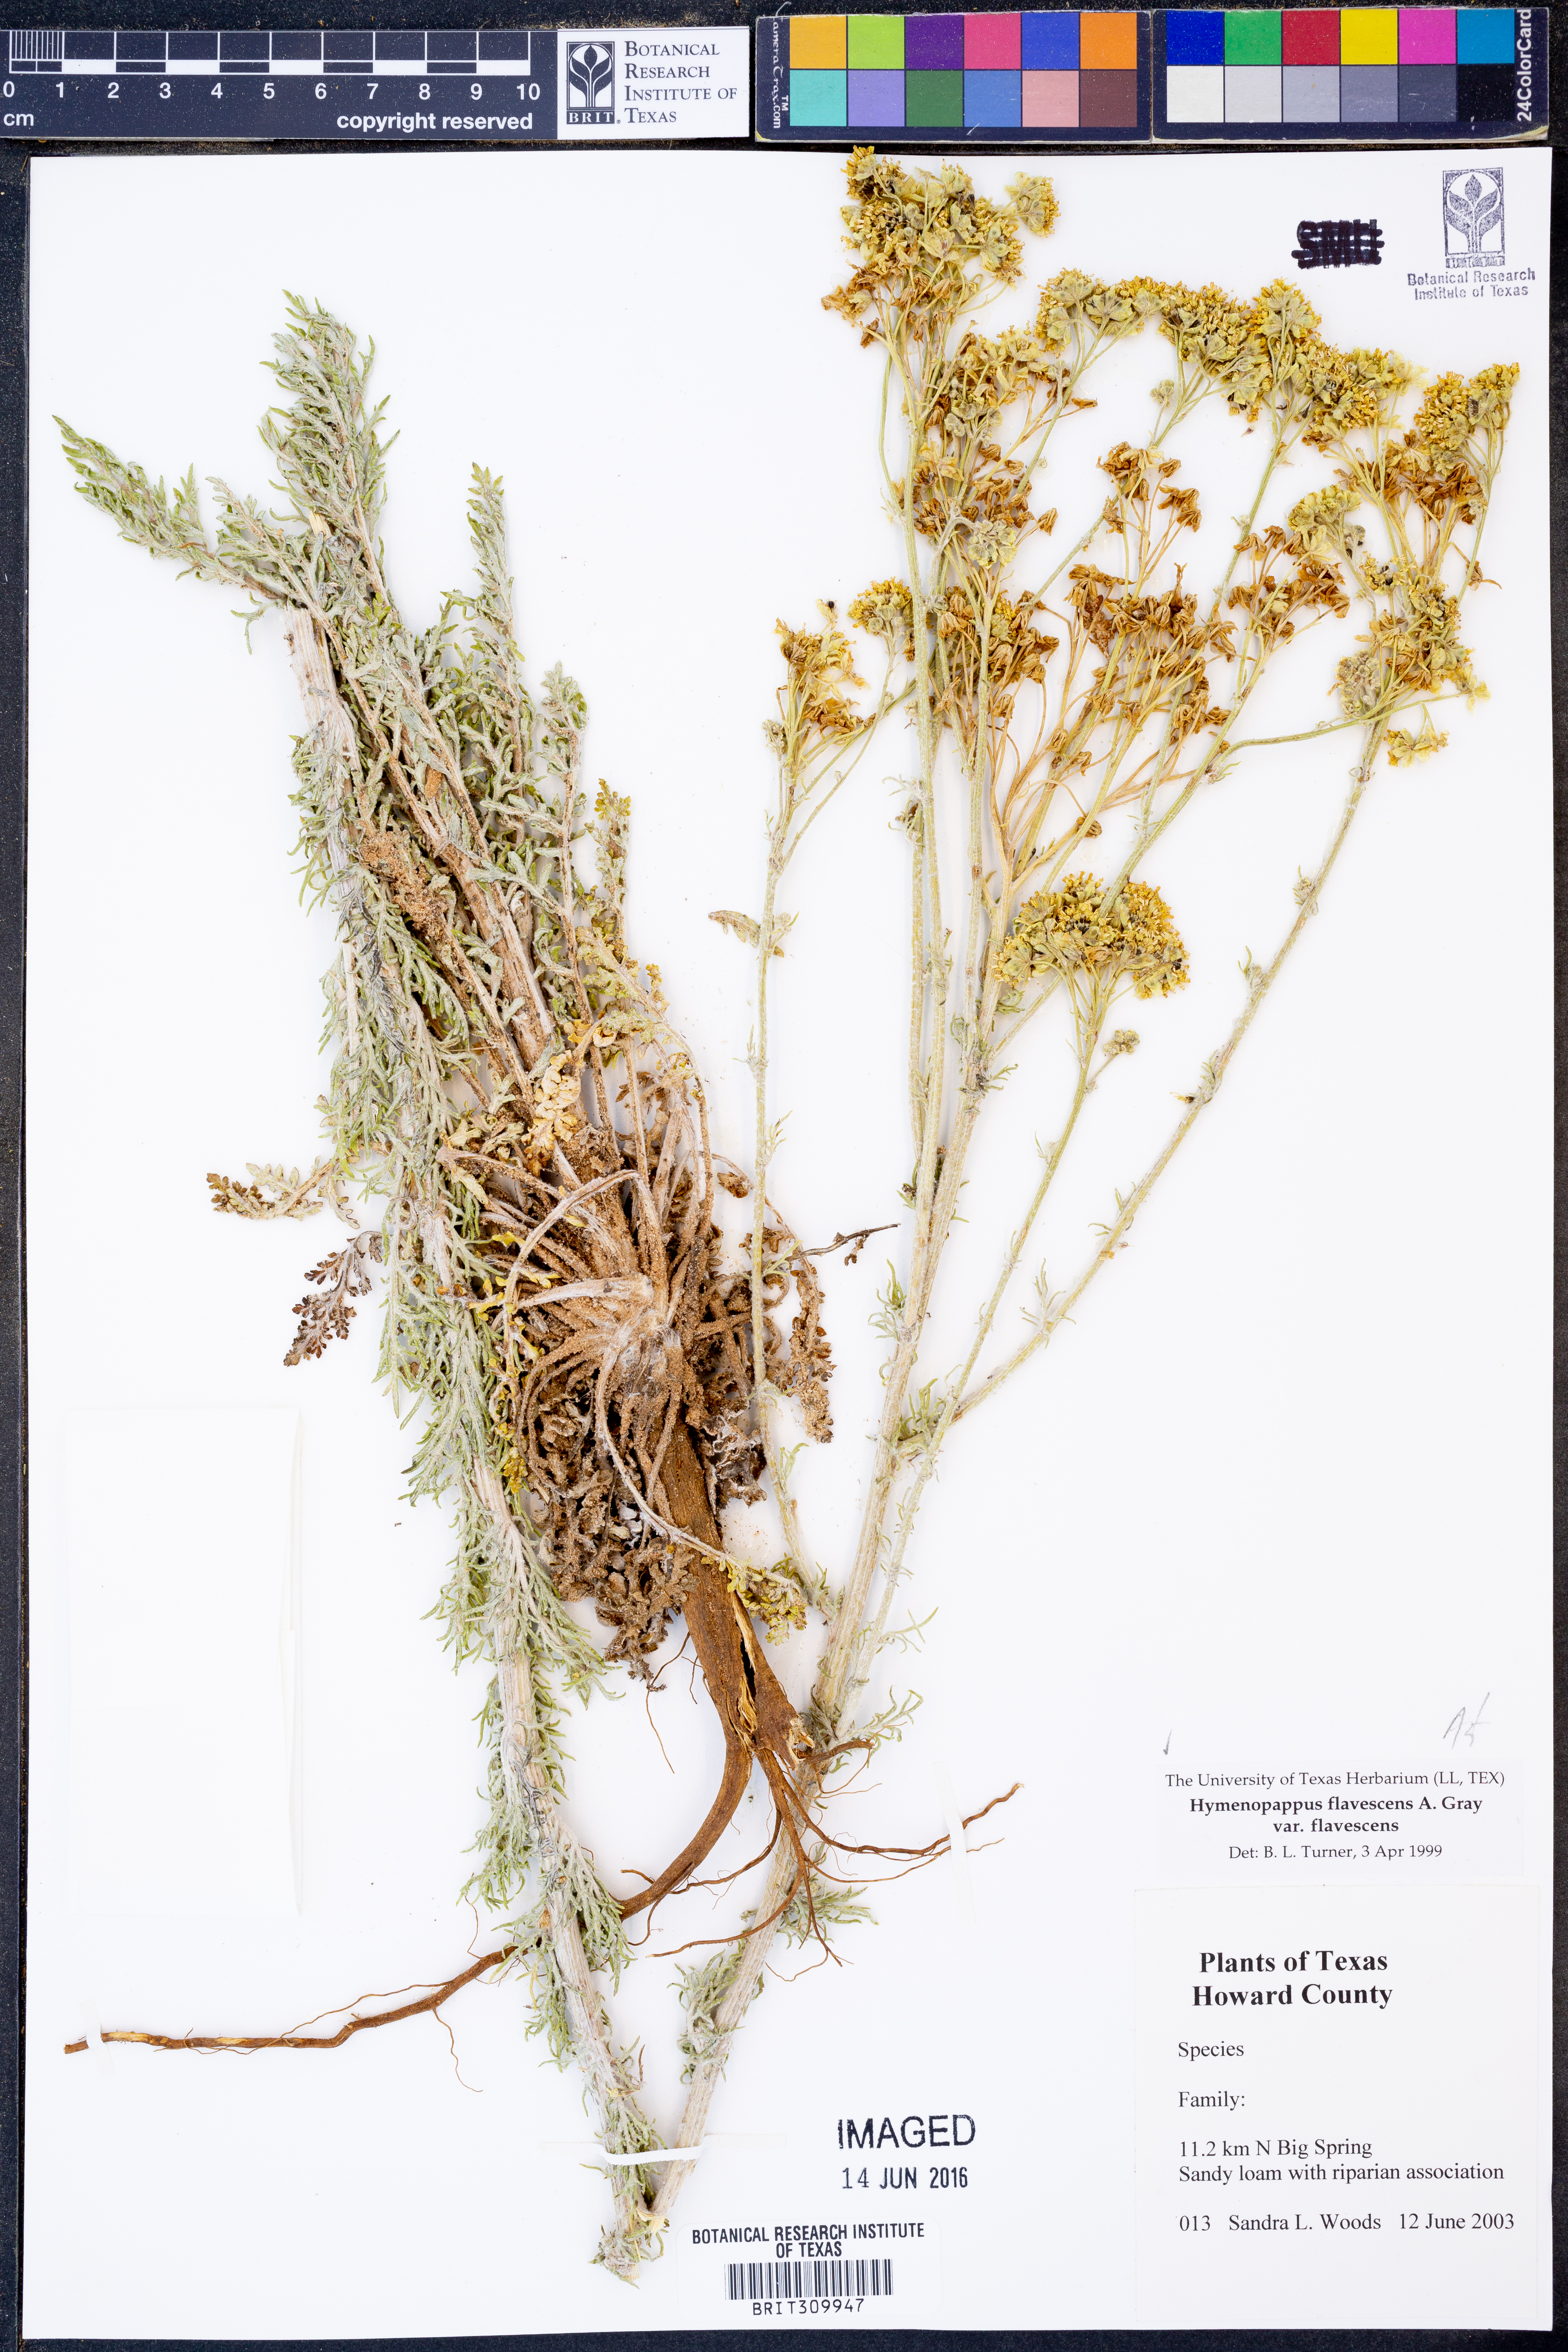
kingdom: Plantae
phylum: Tracheophyta
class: Magnoliopsida
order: Asterales
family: Asteraceae
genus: Hymenopappus
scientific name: Hymenopappus flavescens
